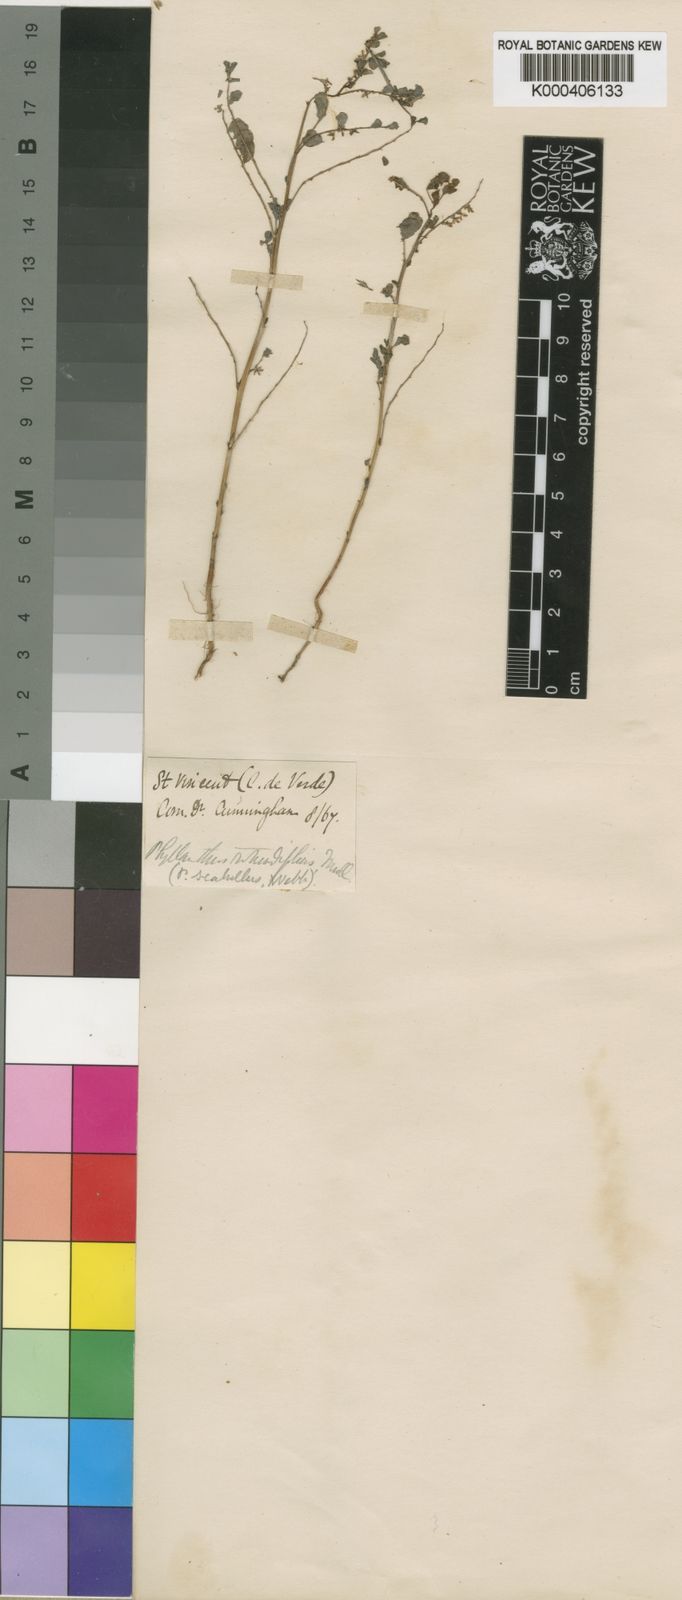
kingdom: Plantae
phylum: Tracheophyta
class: Magnoliopsida
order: Malpighiales
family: Phyllanthaceae
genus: Phyllanthus
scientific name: Phyllanthus
